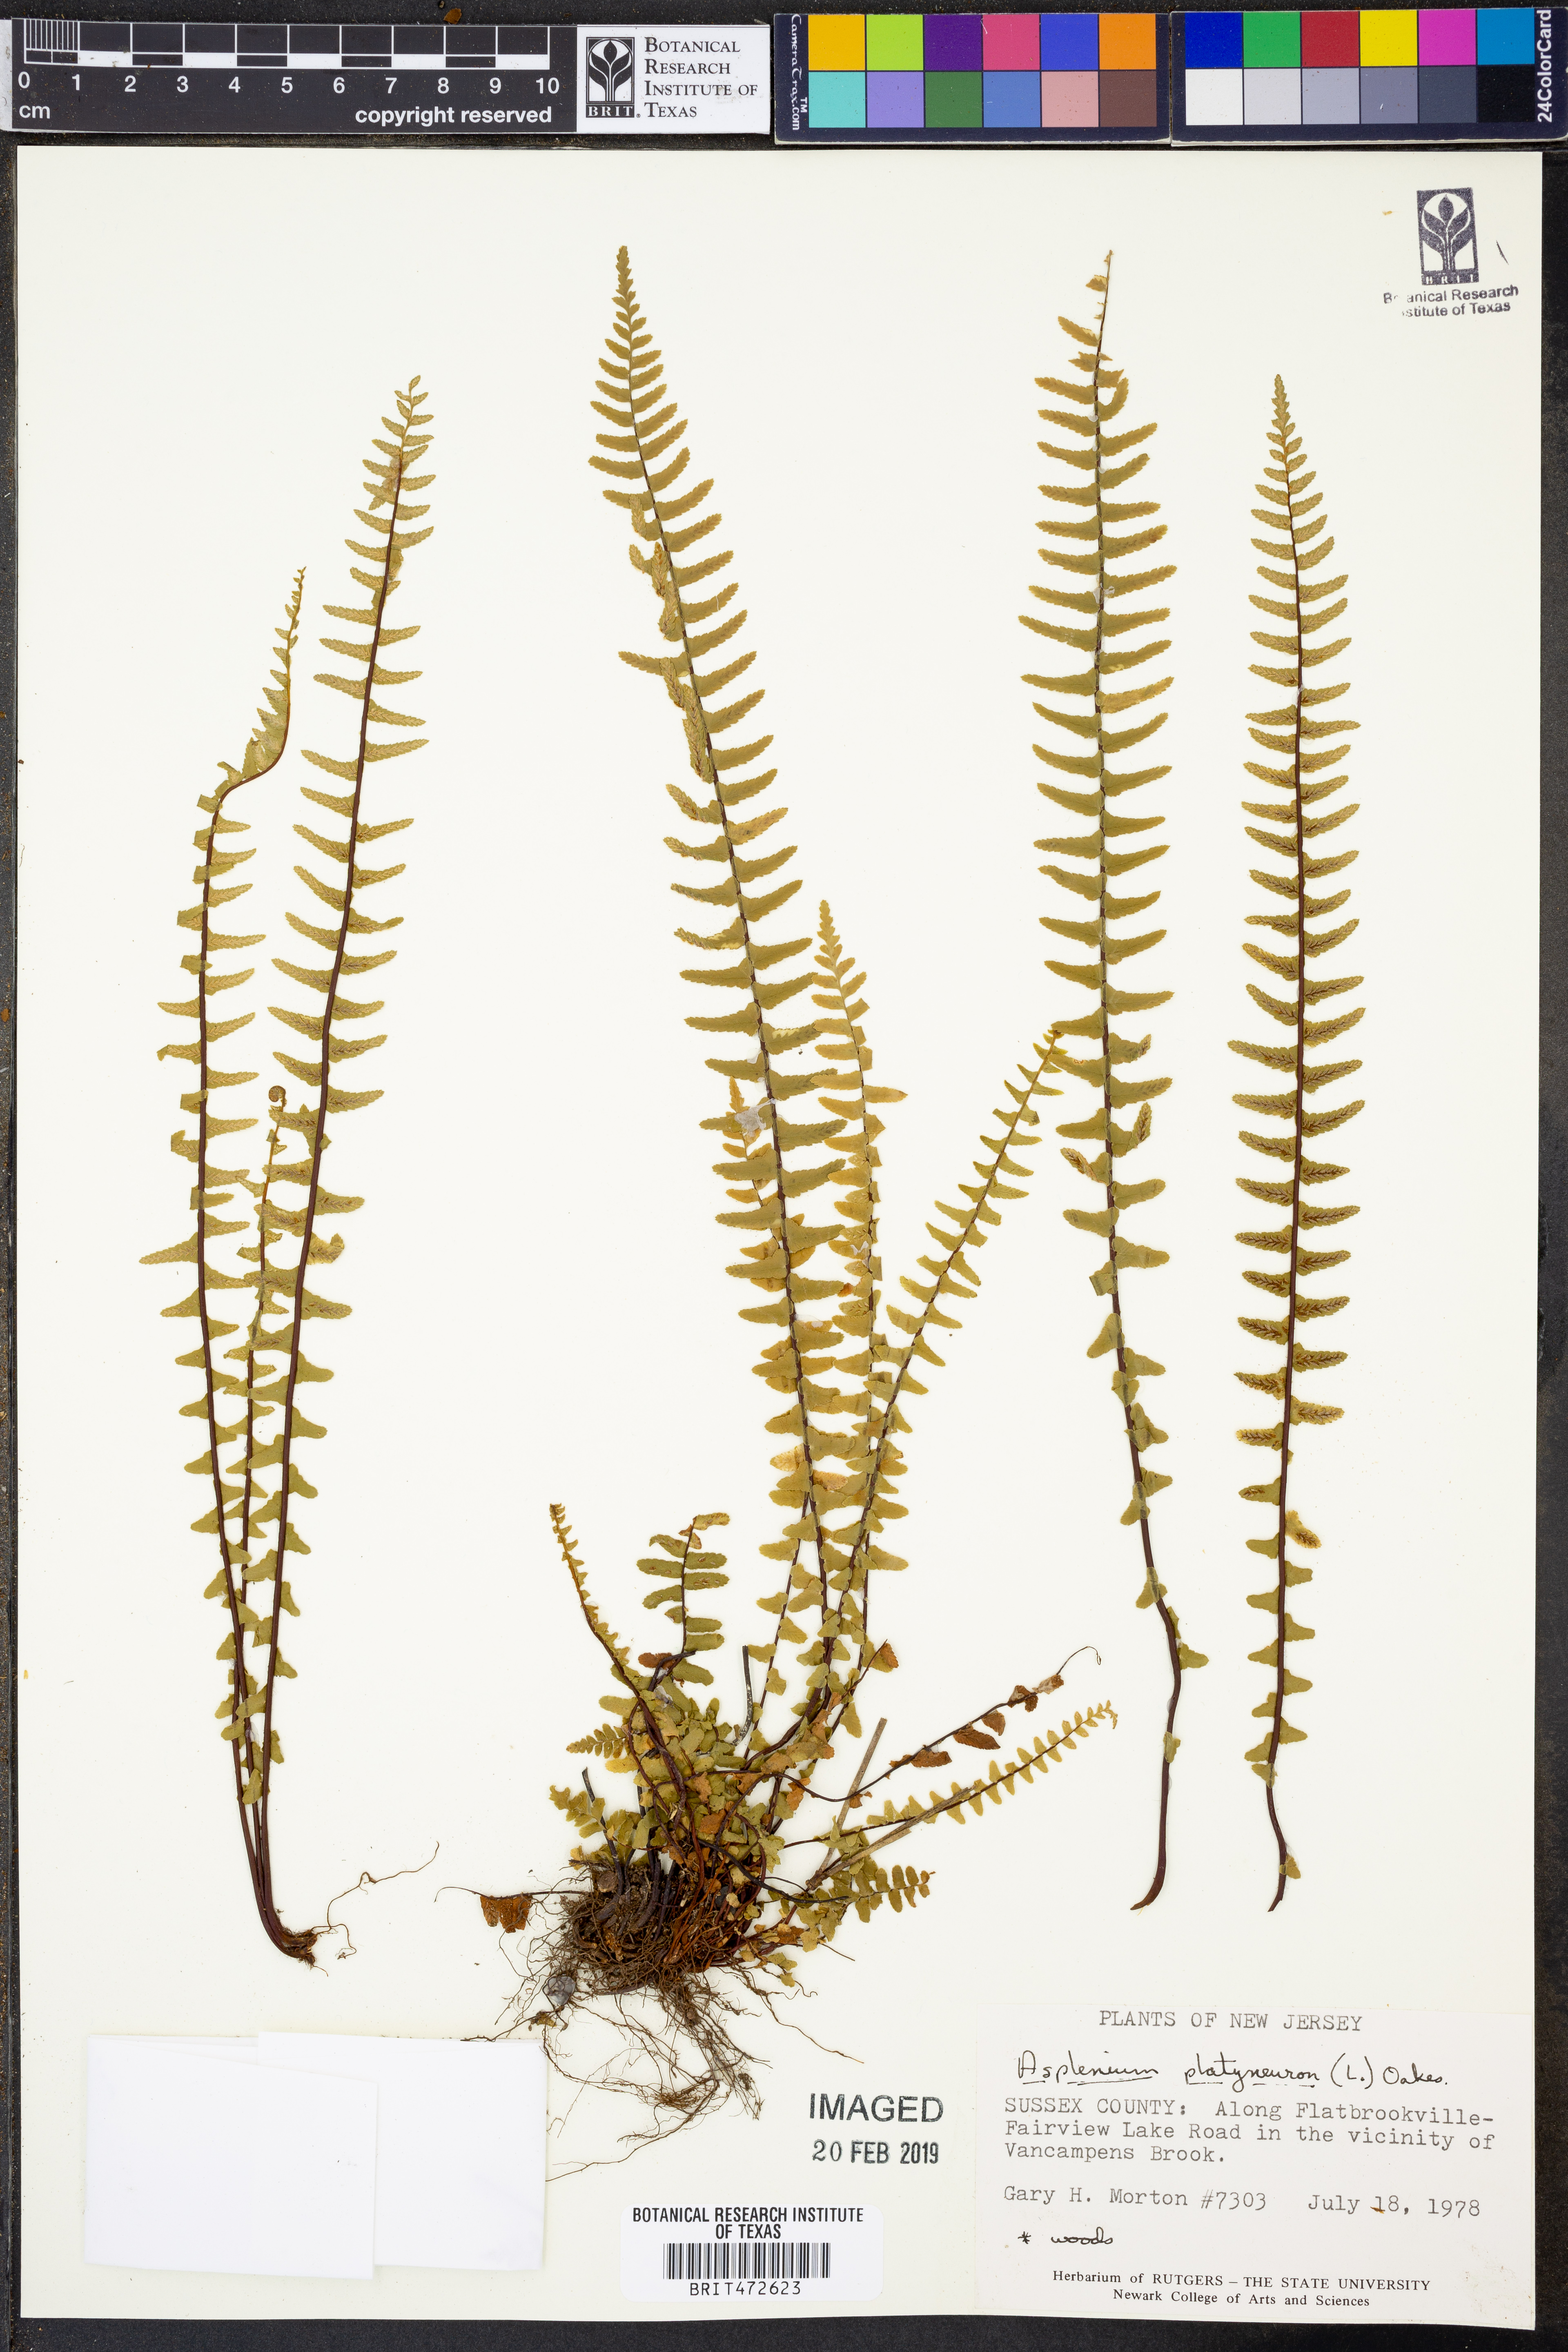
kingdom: Plantae
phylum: Tracheophyta
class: Polypodiopsida
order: Polypodiales
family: Aspleniaceae
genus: Asplenium
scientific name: Asplenium platyneuron
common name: Ebony spleenwort
